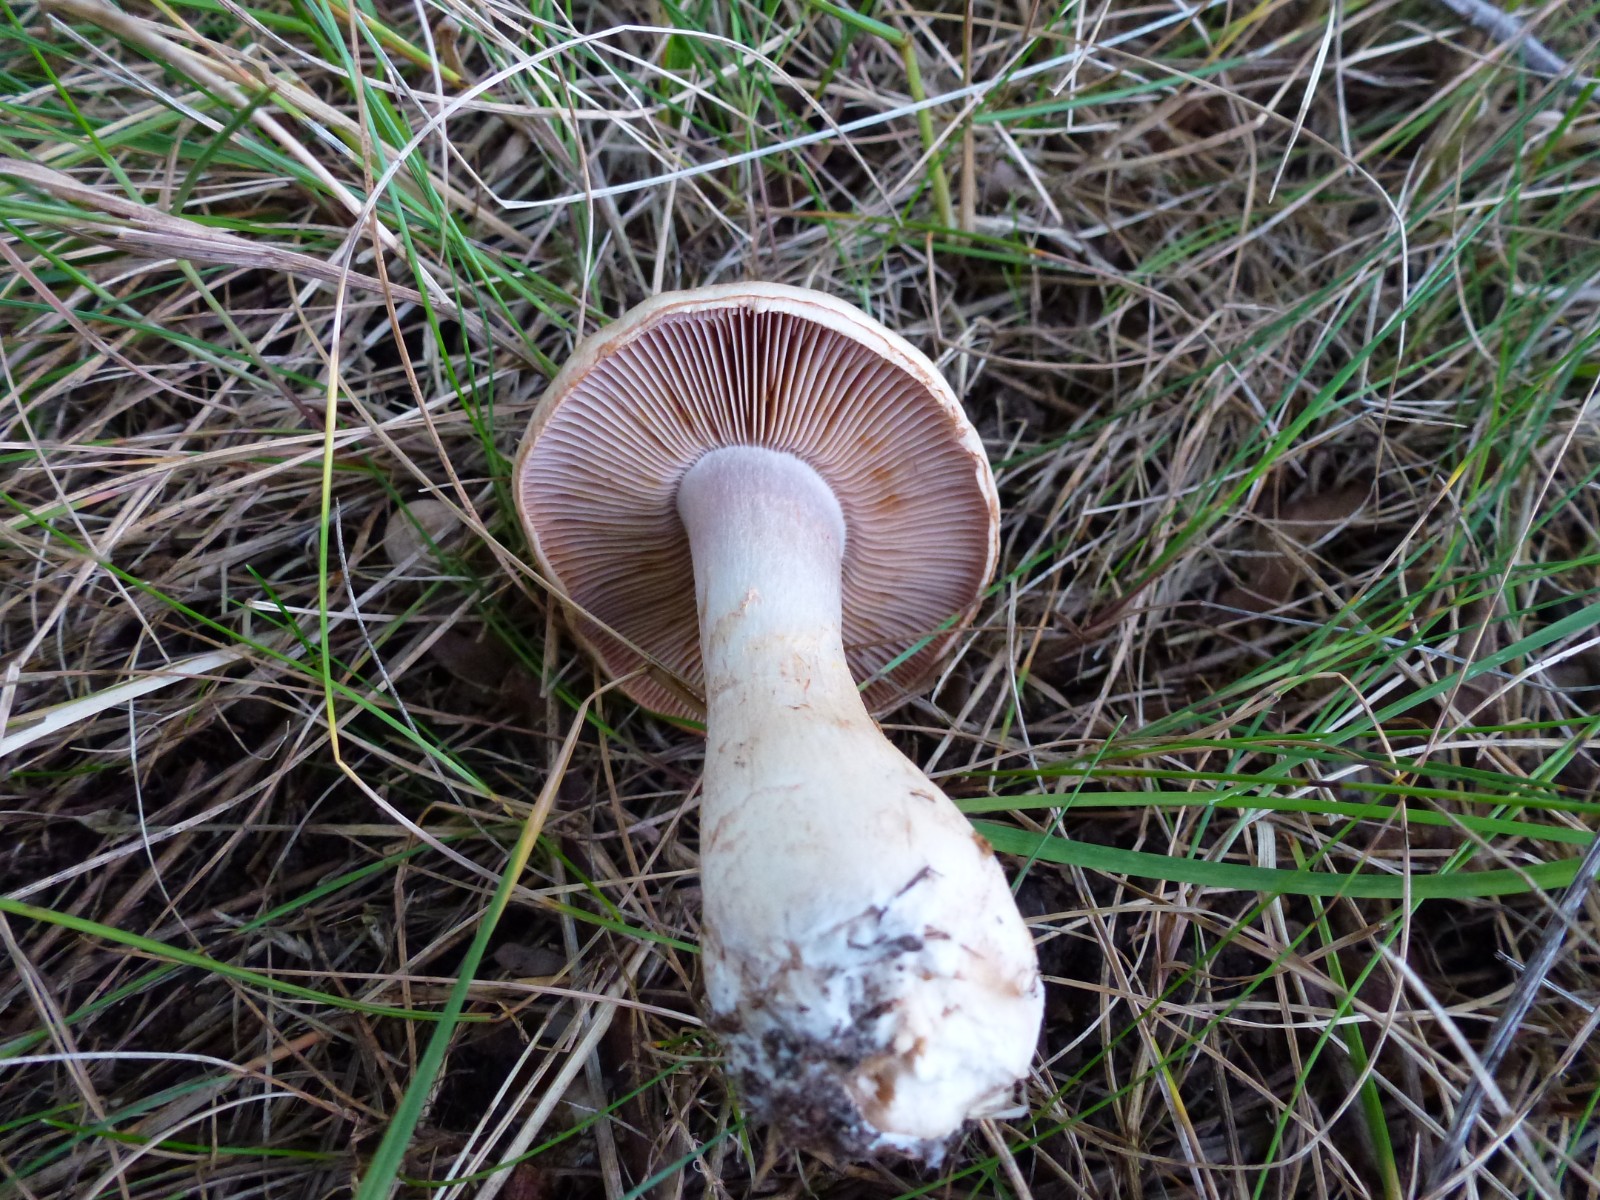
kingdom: Fungi
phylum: Basidiomycota
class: Agaricomycetes
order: Agaricales
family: Cortinariaceae
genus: Cortinarius
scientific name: Cortinarius
